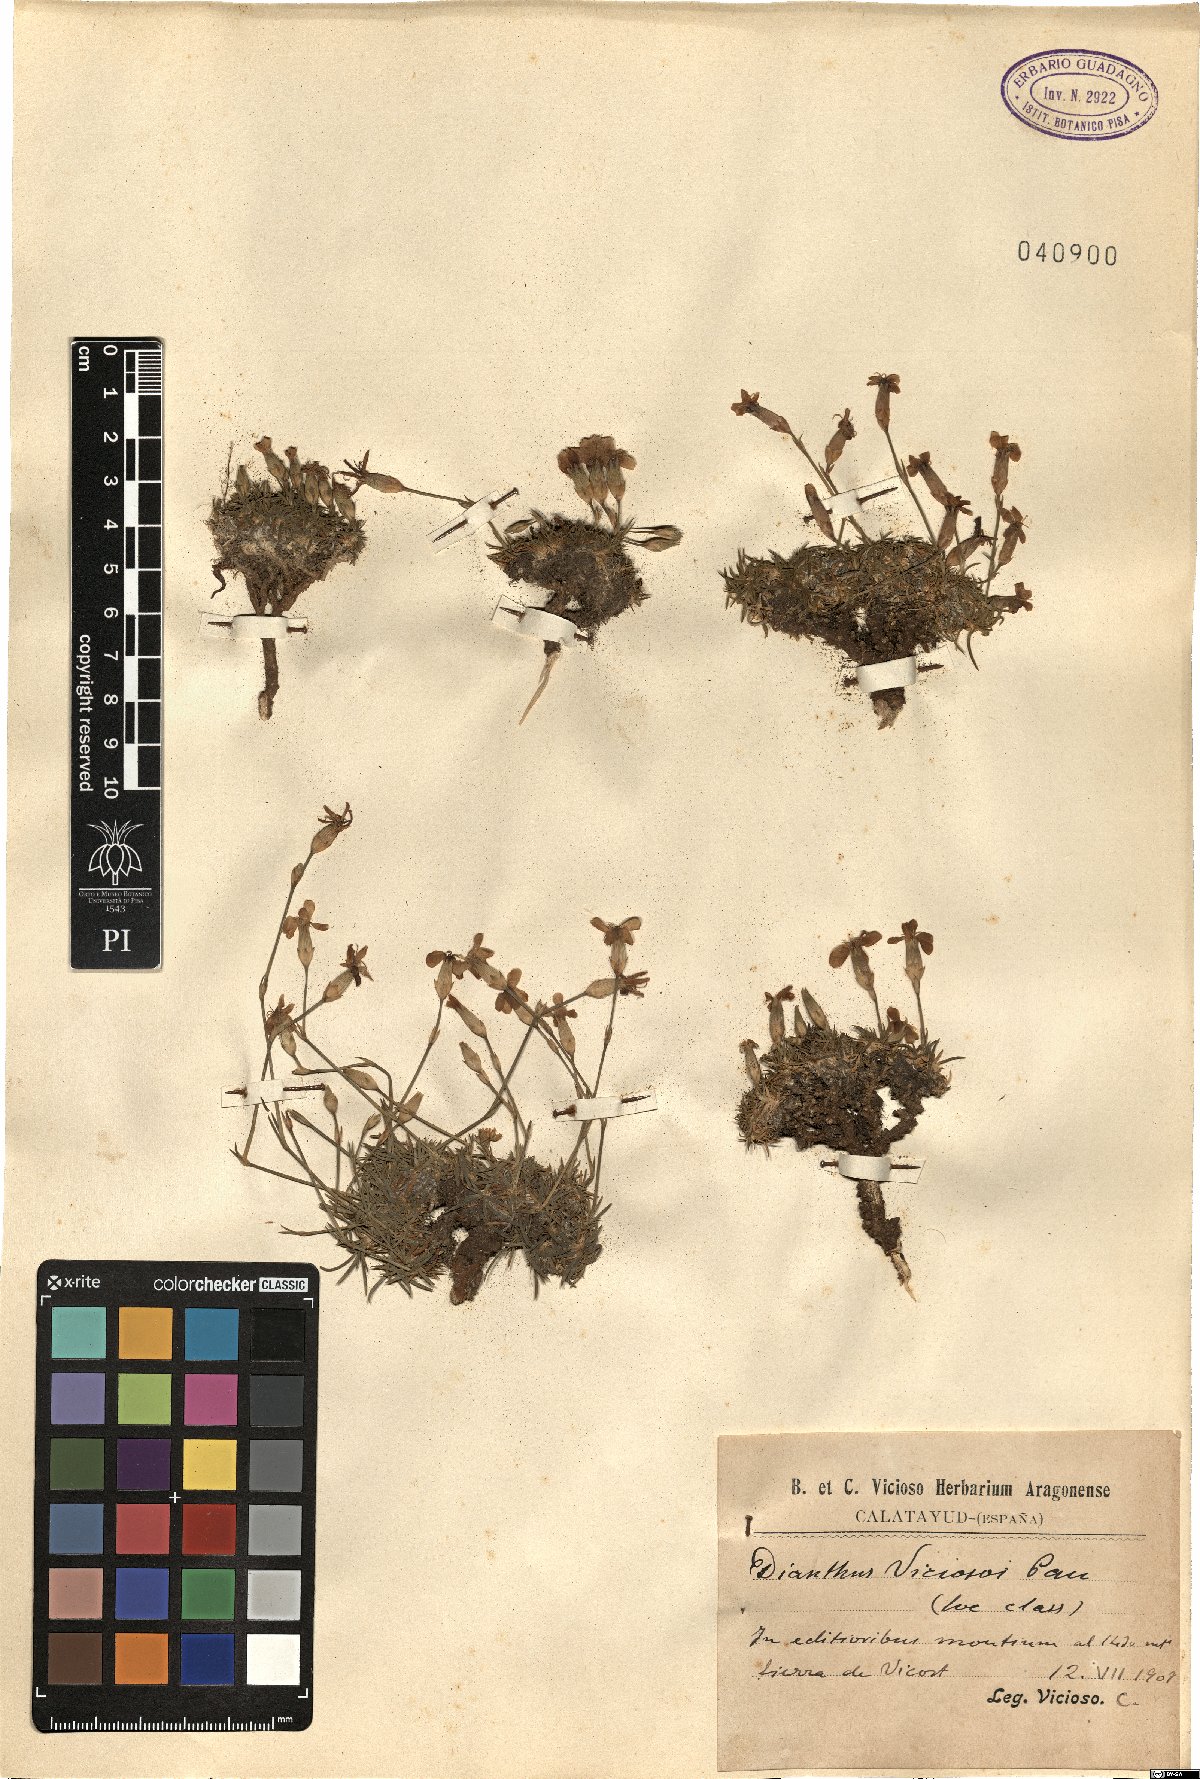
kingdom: Plantae
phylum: Tracheophyta
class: Magnoliopsida
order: Caryophyllales
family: Caryophyllaceae
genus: Dianthus
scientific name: Dianthus
